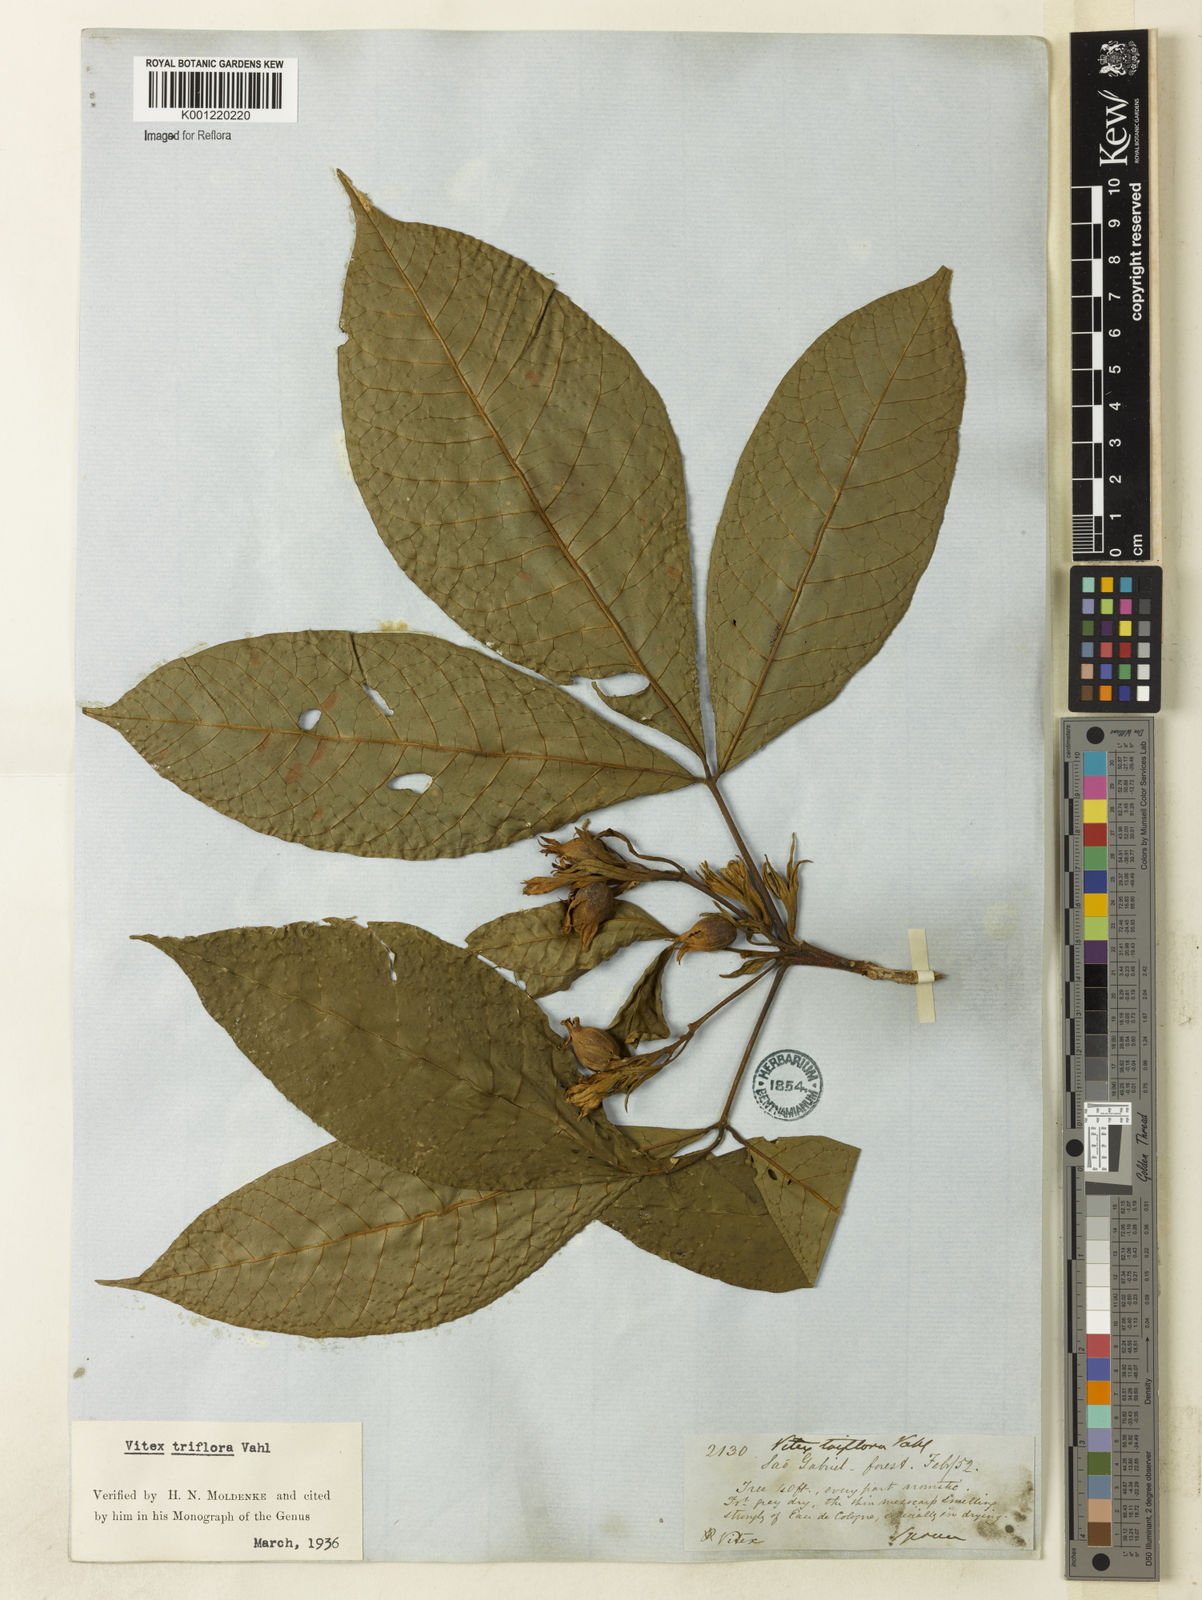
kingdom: Plantae
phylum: Tracheophyta
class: Magnoliopsida
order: Lamiales
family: Lamiaceae
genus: Vitex
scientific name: Vitex triflora
